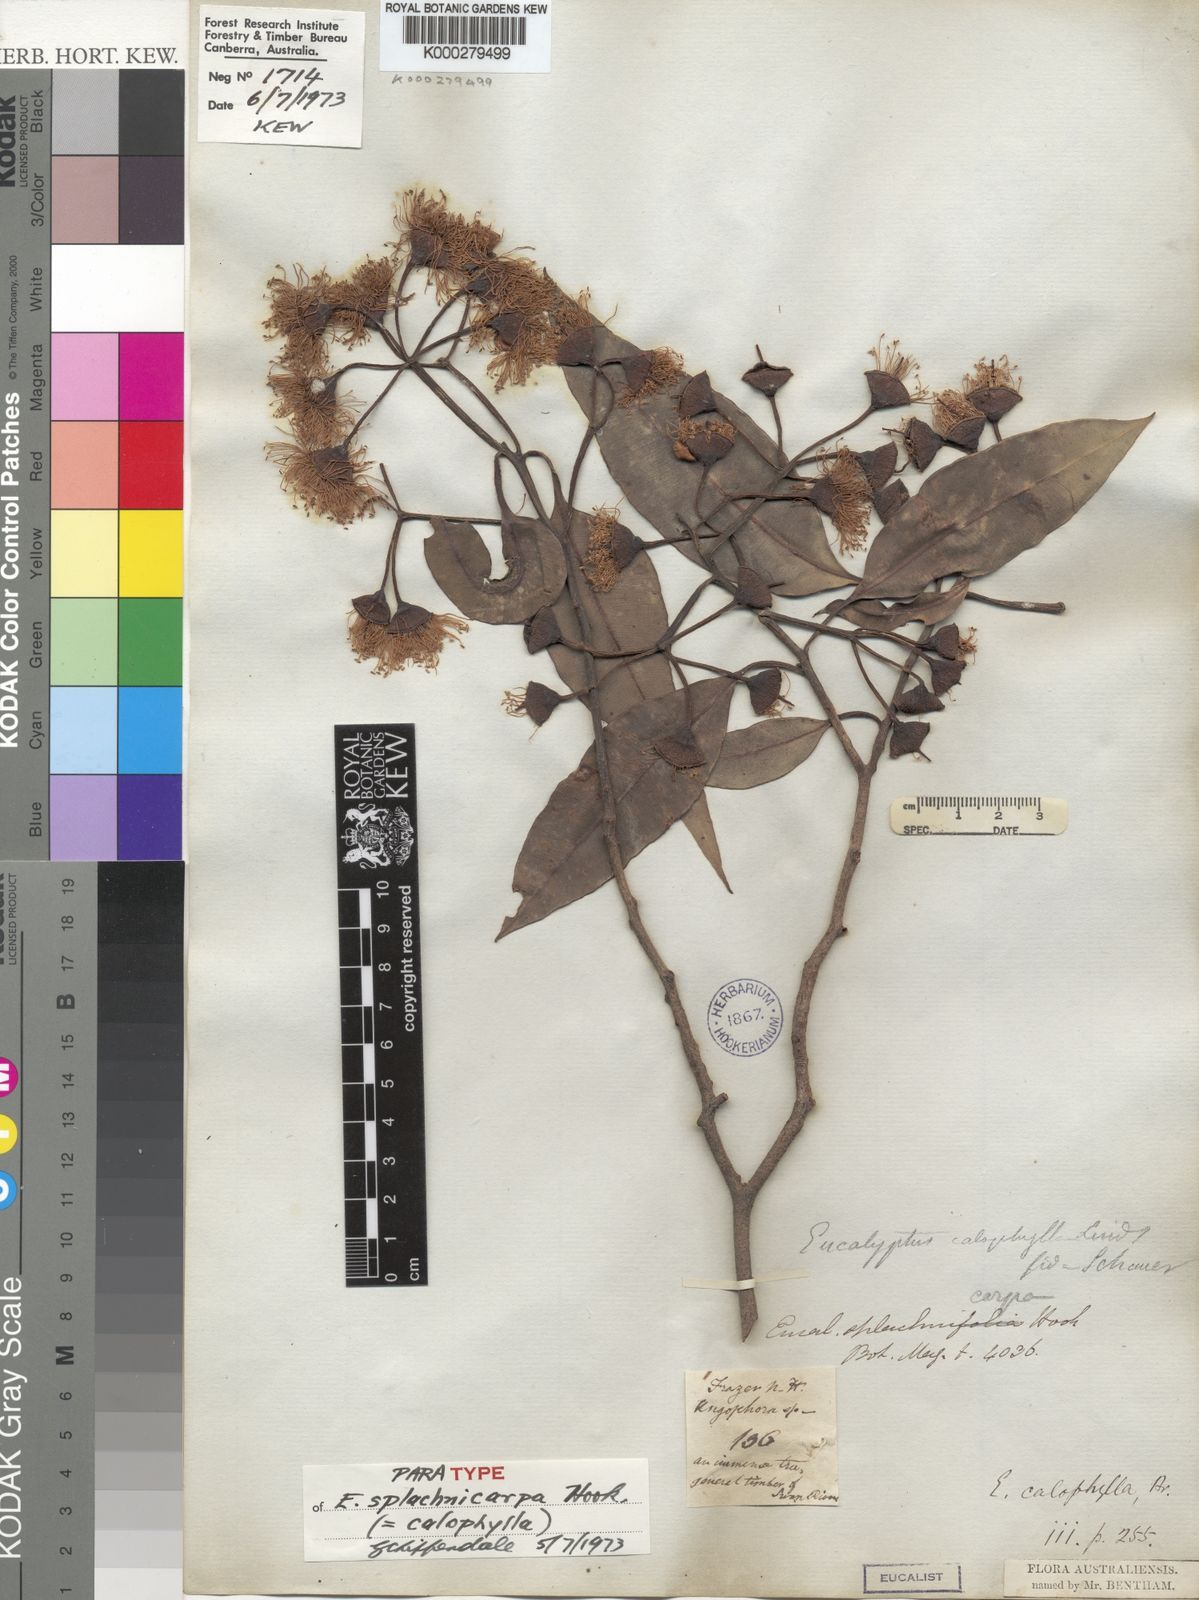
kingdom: Plantae
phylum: Tracheophyta
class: Magnoliopsida
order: Myrtales
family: Myrtaceae
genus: Corymbia
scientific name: Corymbia calophylla
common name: Marri
